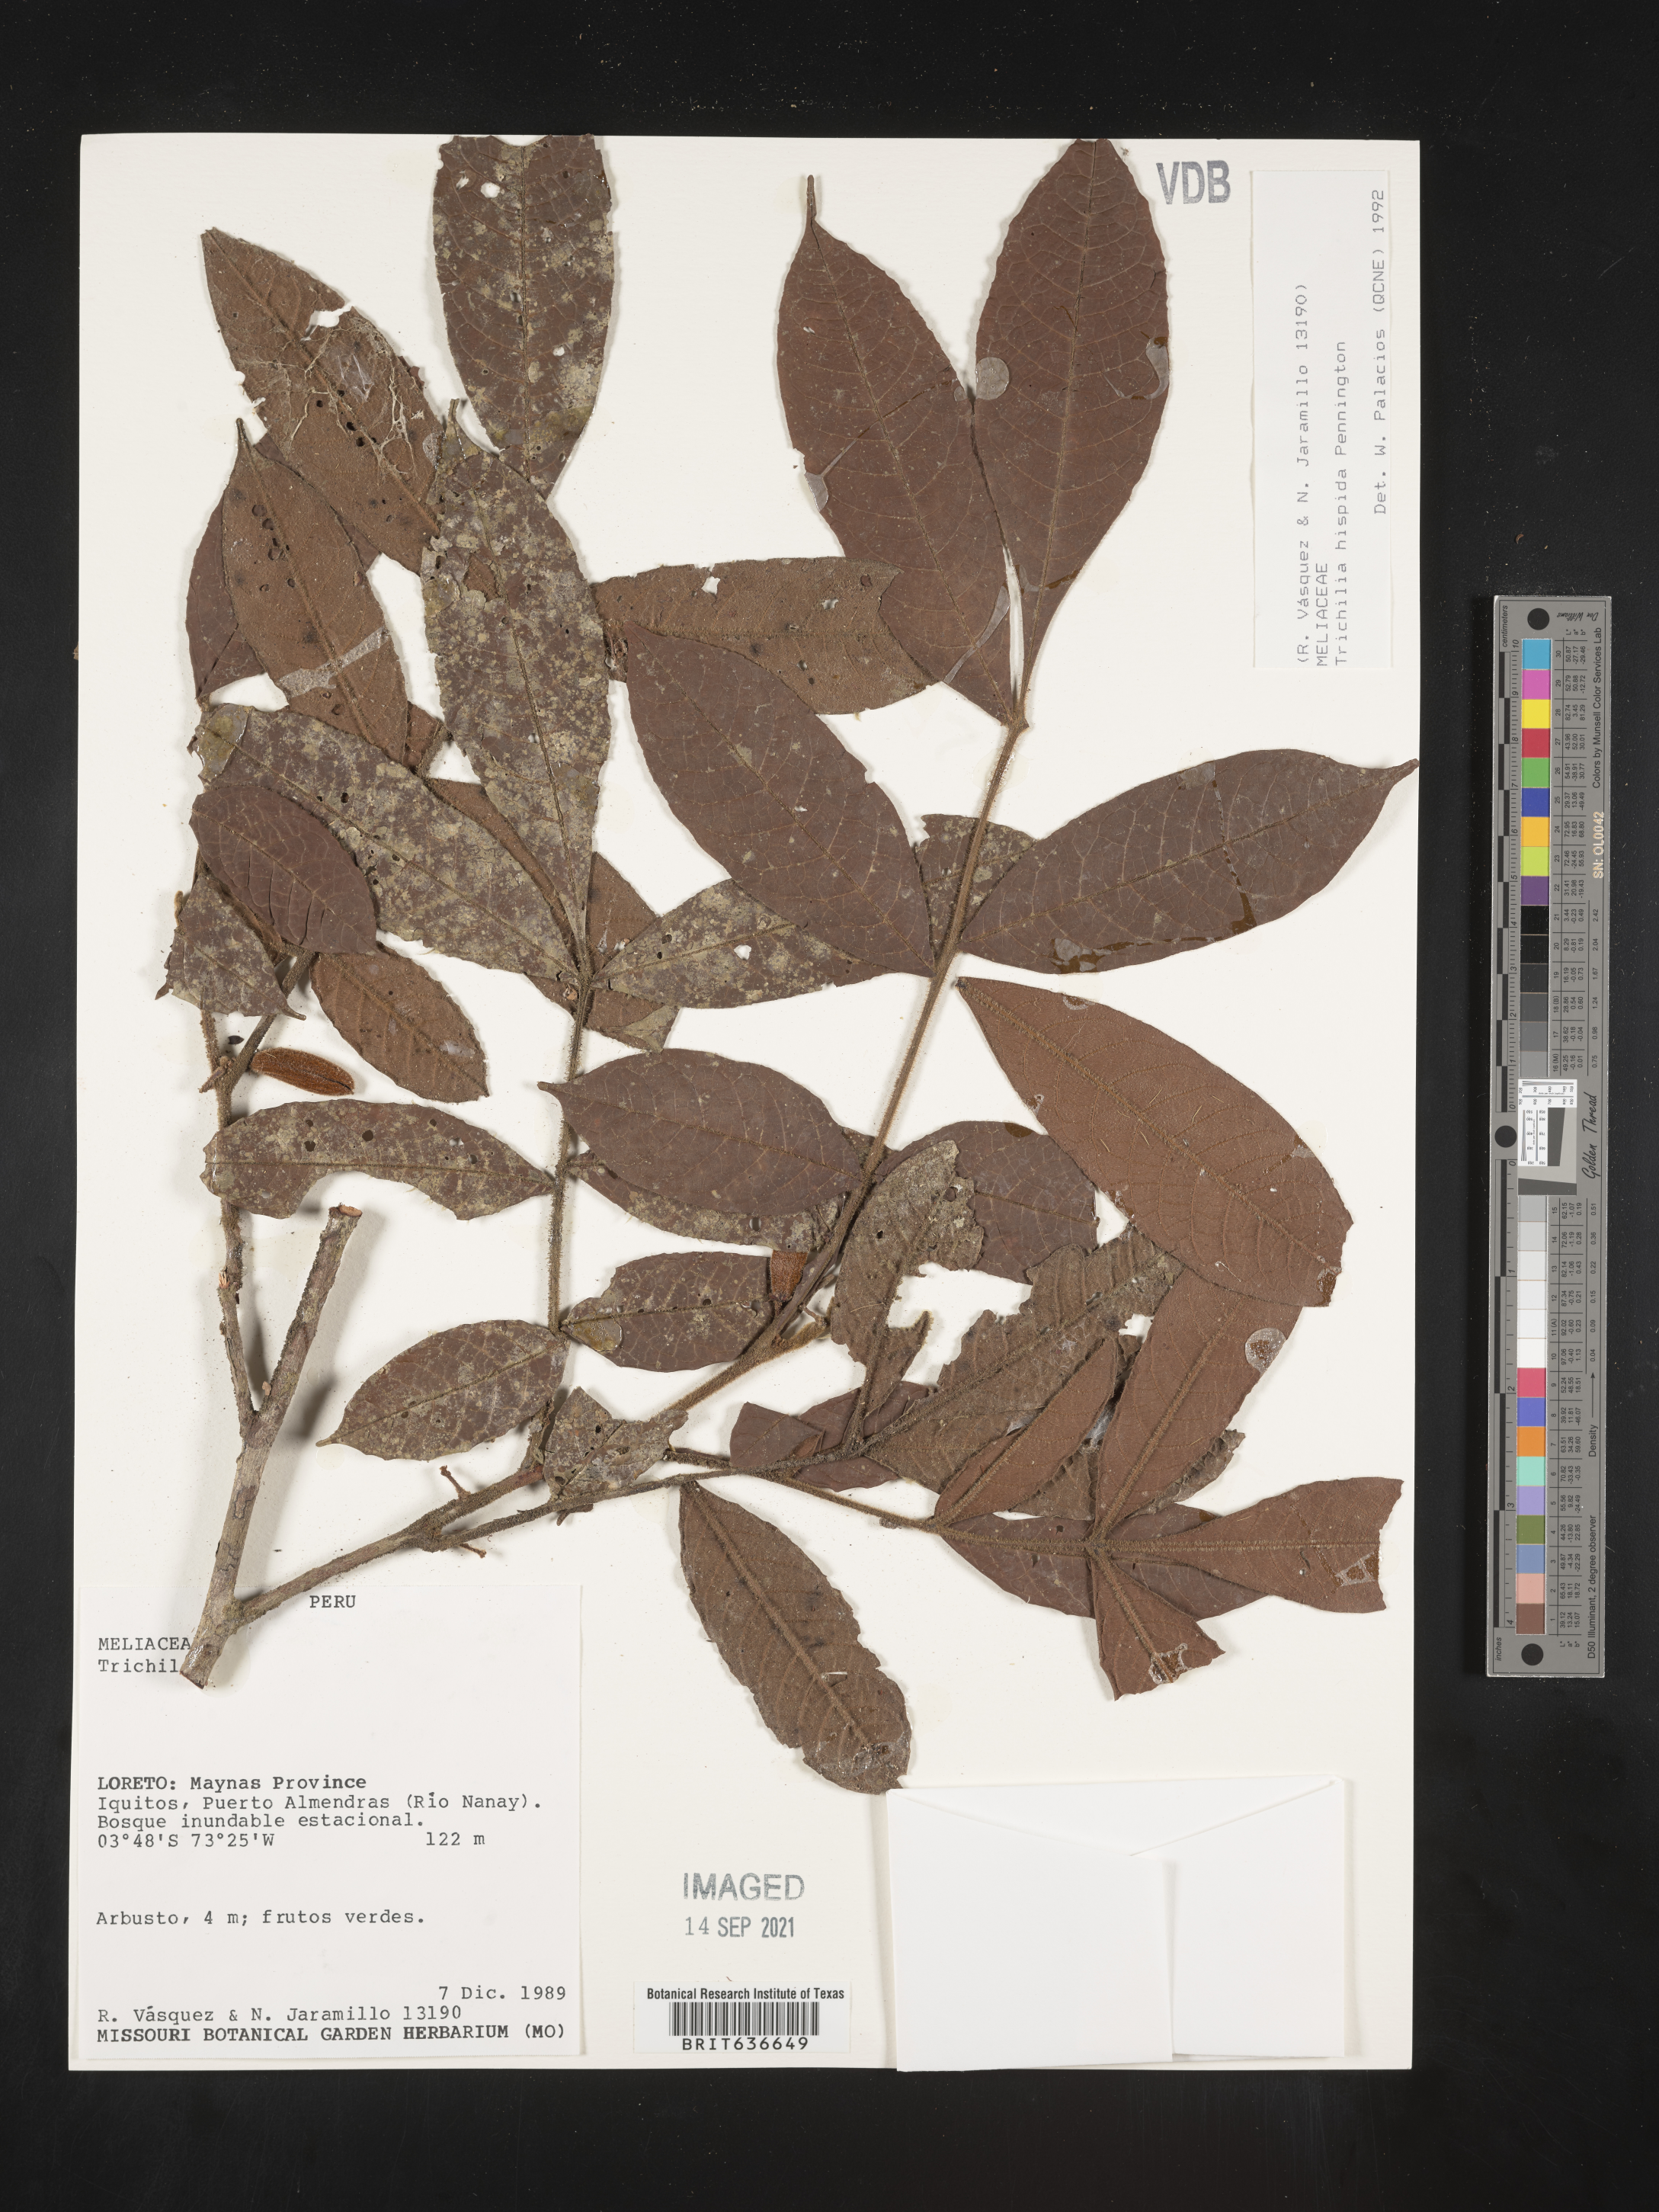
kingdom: Plantae
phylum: Tracheophyta
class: Magnoliopsida
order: Sapindales
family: Meliaceae
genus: Trichilia
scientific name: Trichilia
